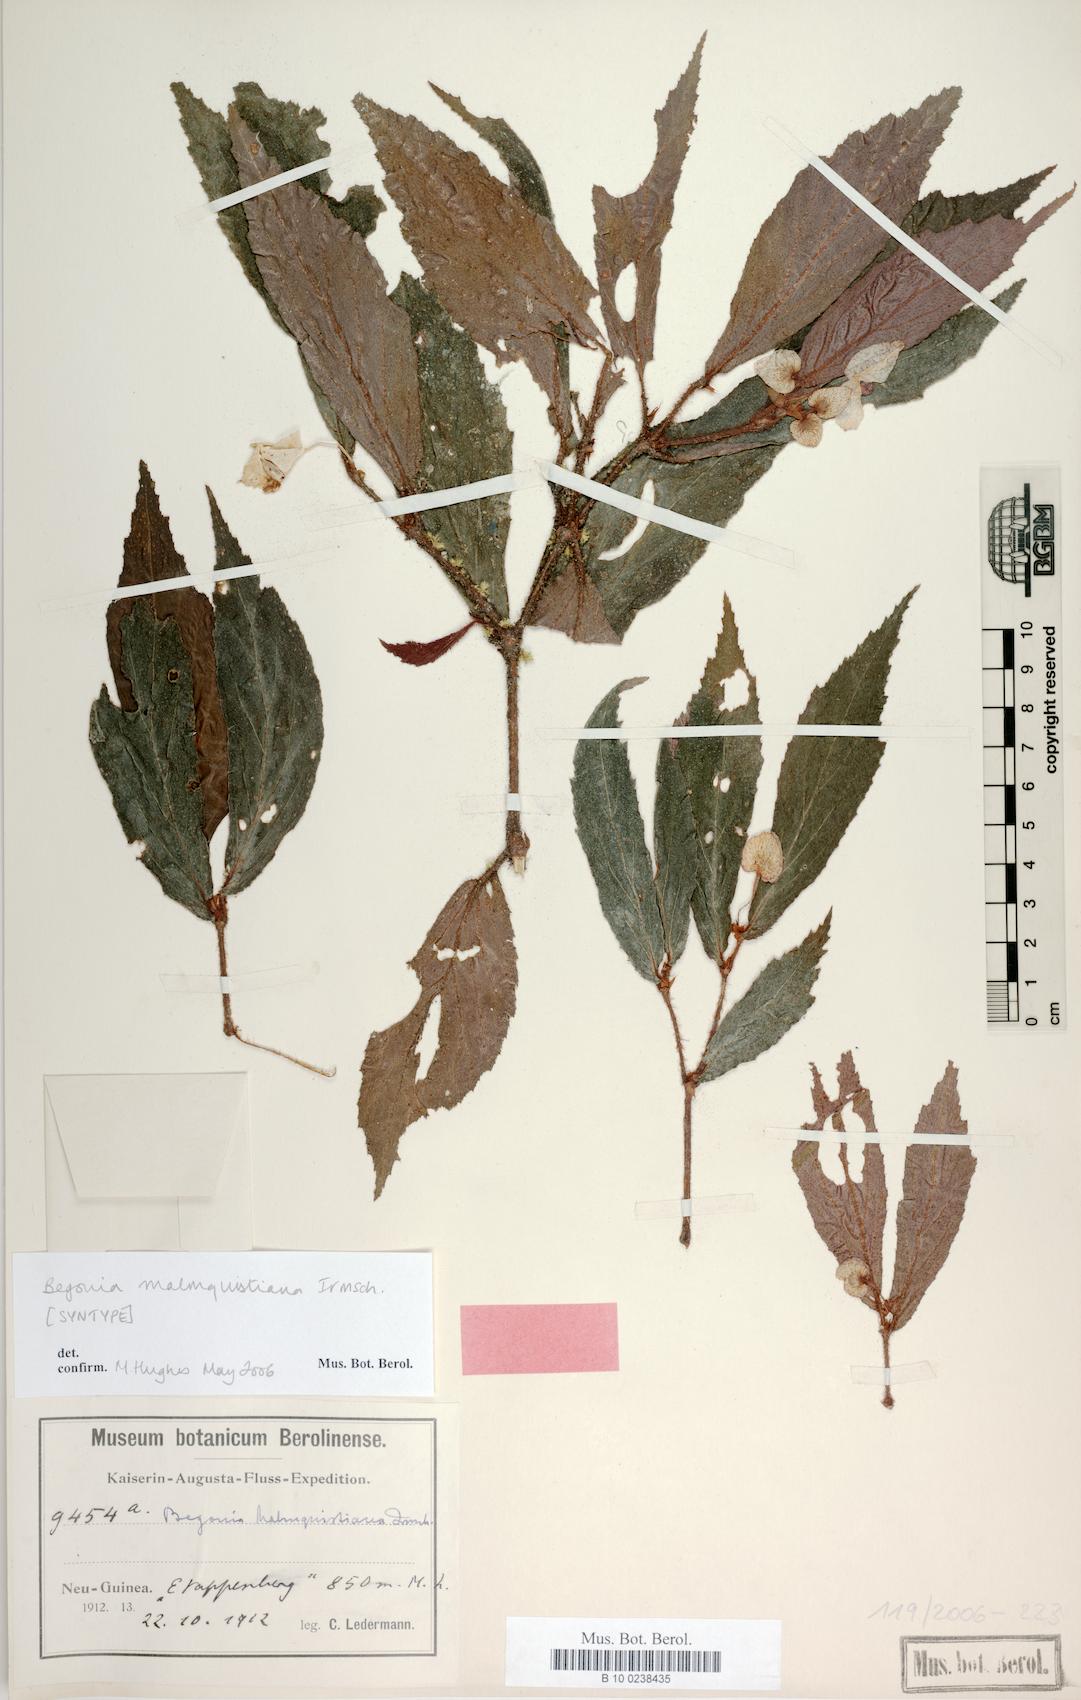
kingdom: Plantae
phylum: Tracheophyta
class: Magnoliopsida
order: Cucurbitales
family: Begoniaceae
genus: Begonia
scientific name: Begonia malmquistiana
